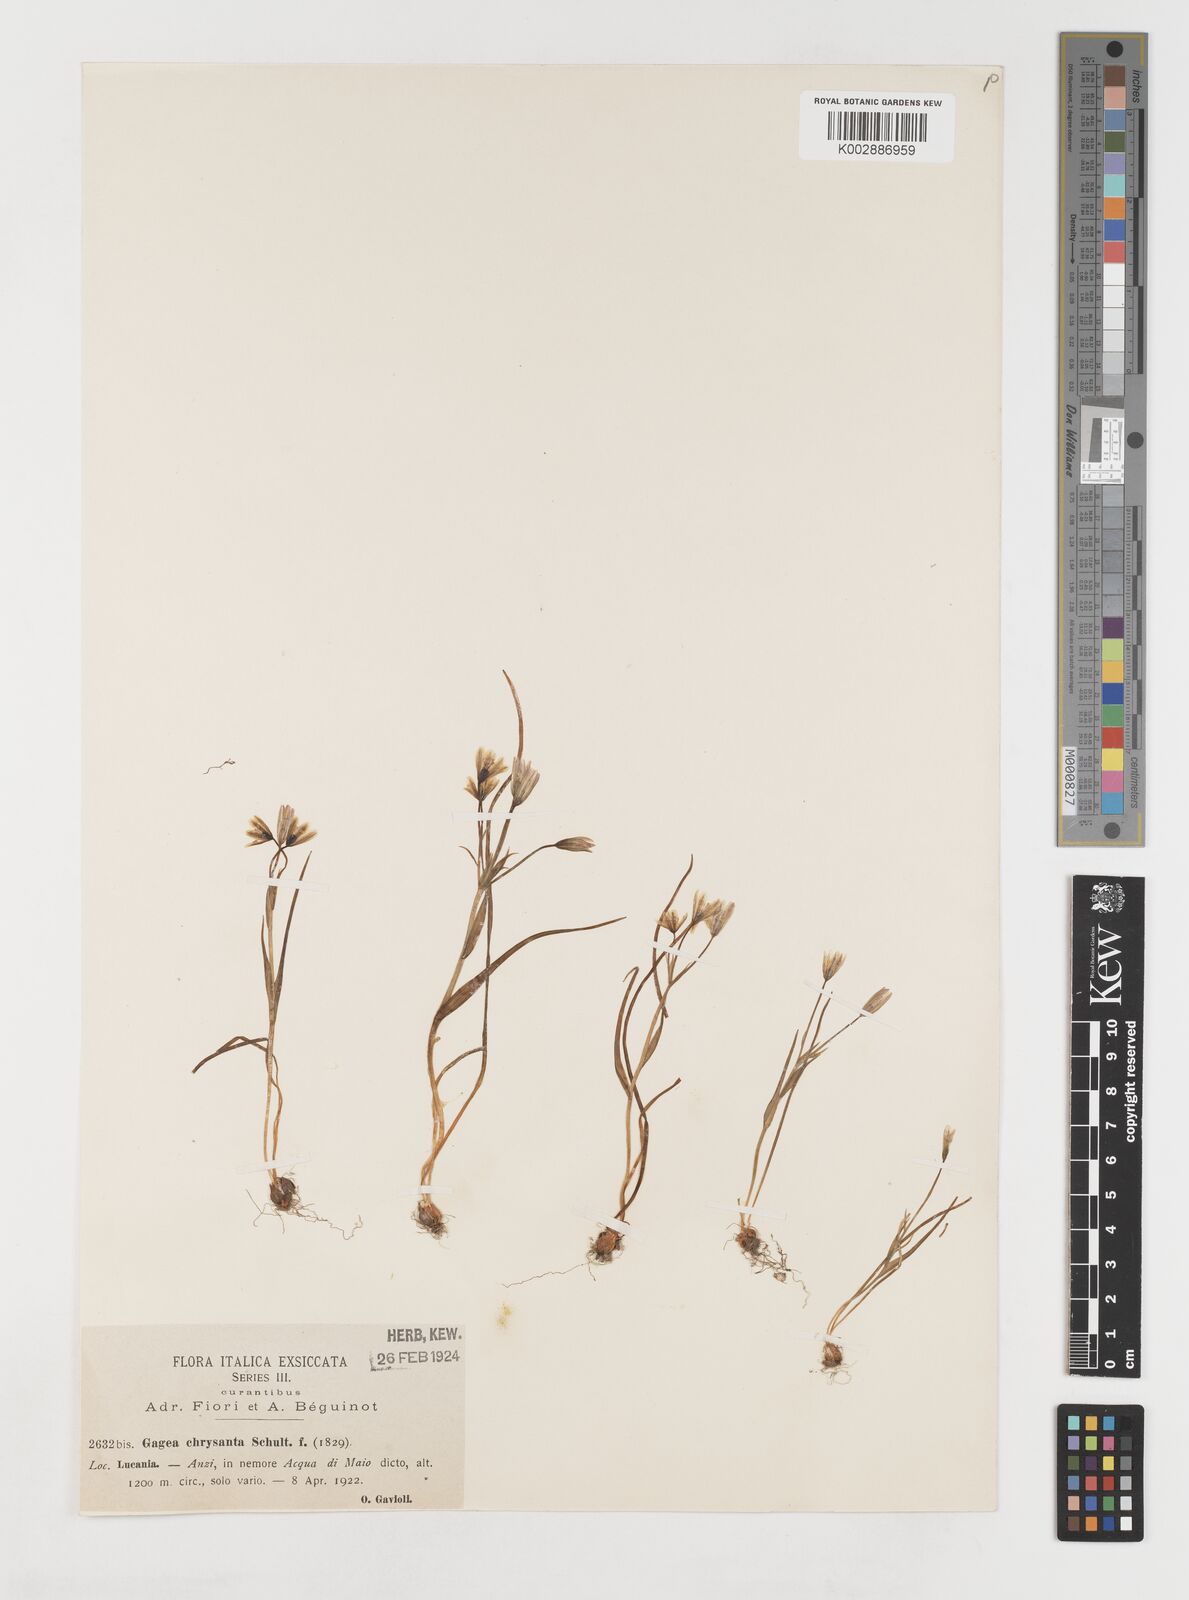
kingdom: Plantae
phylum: Tracheophyta
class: Liliopsida
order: Liliales
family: Liliaceae
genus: Gagea
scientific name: Gagea chrysantha
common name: Golden gagea
